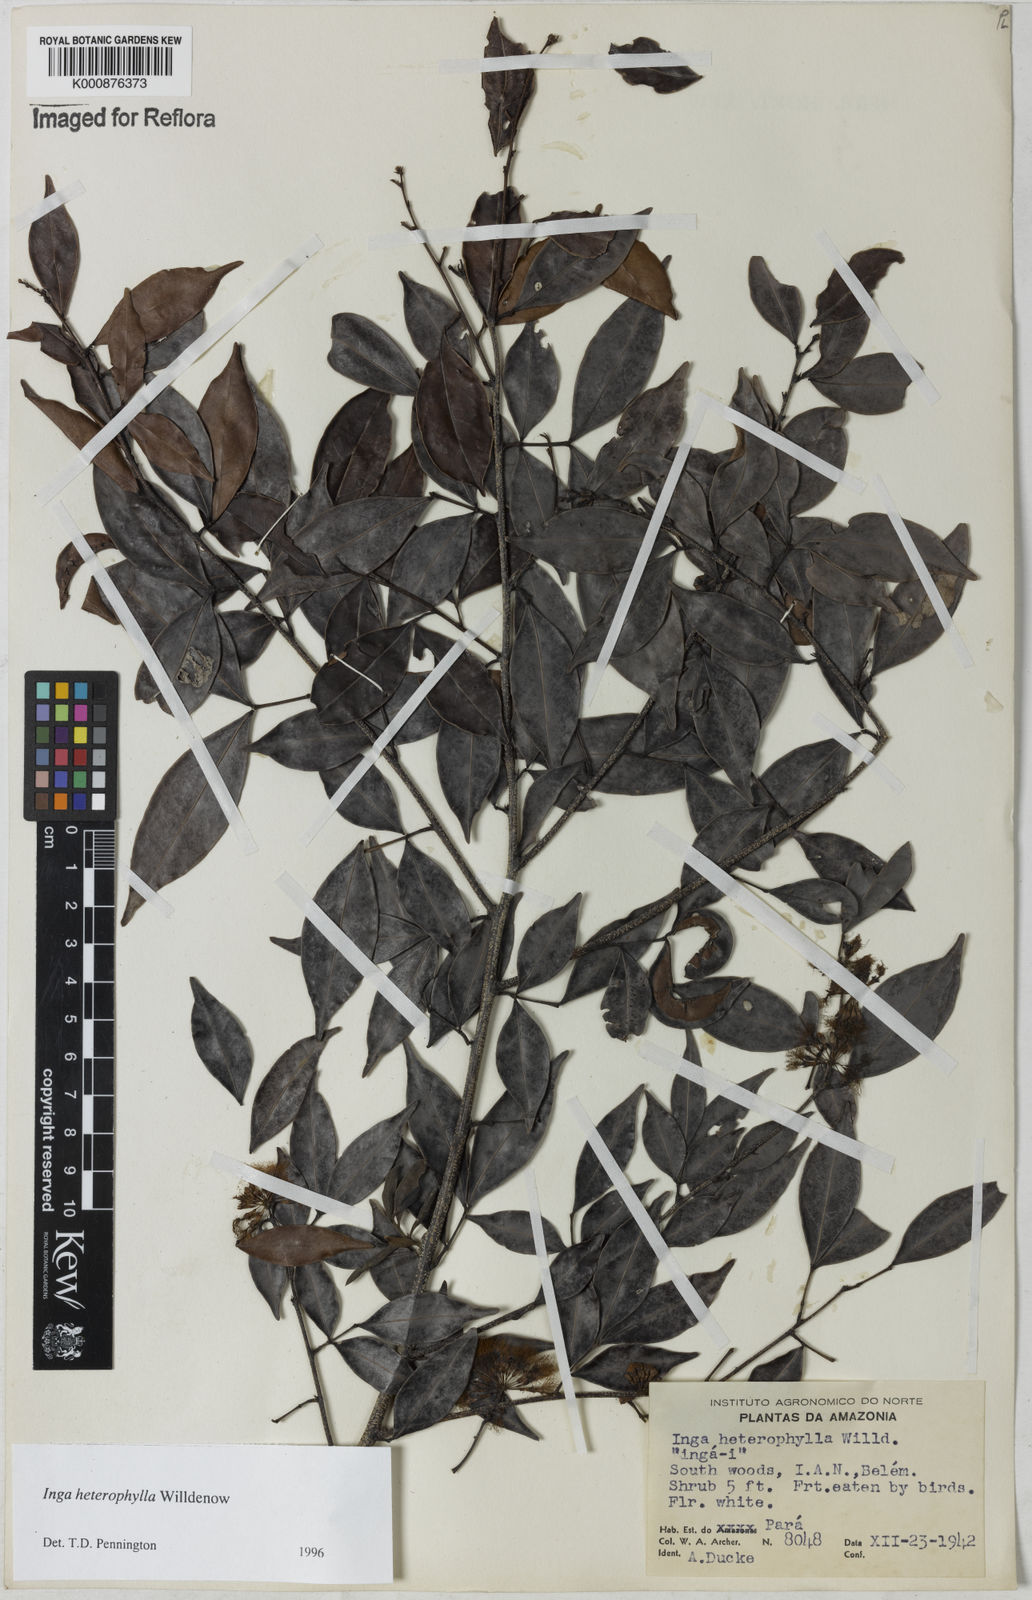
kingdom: Plantae
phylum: Tracheophyta
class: Magnoliopsida
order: Fabales
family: Fabaceae
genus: Inga
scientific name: Inga heterophylla
